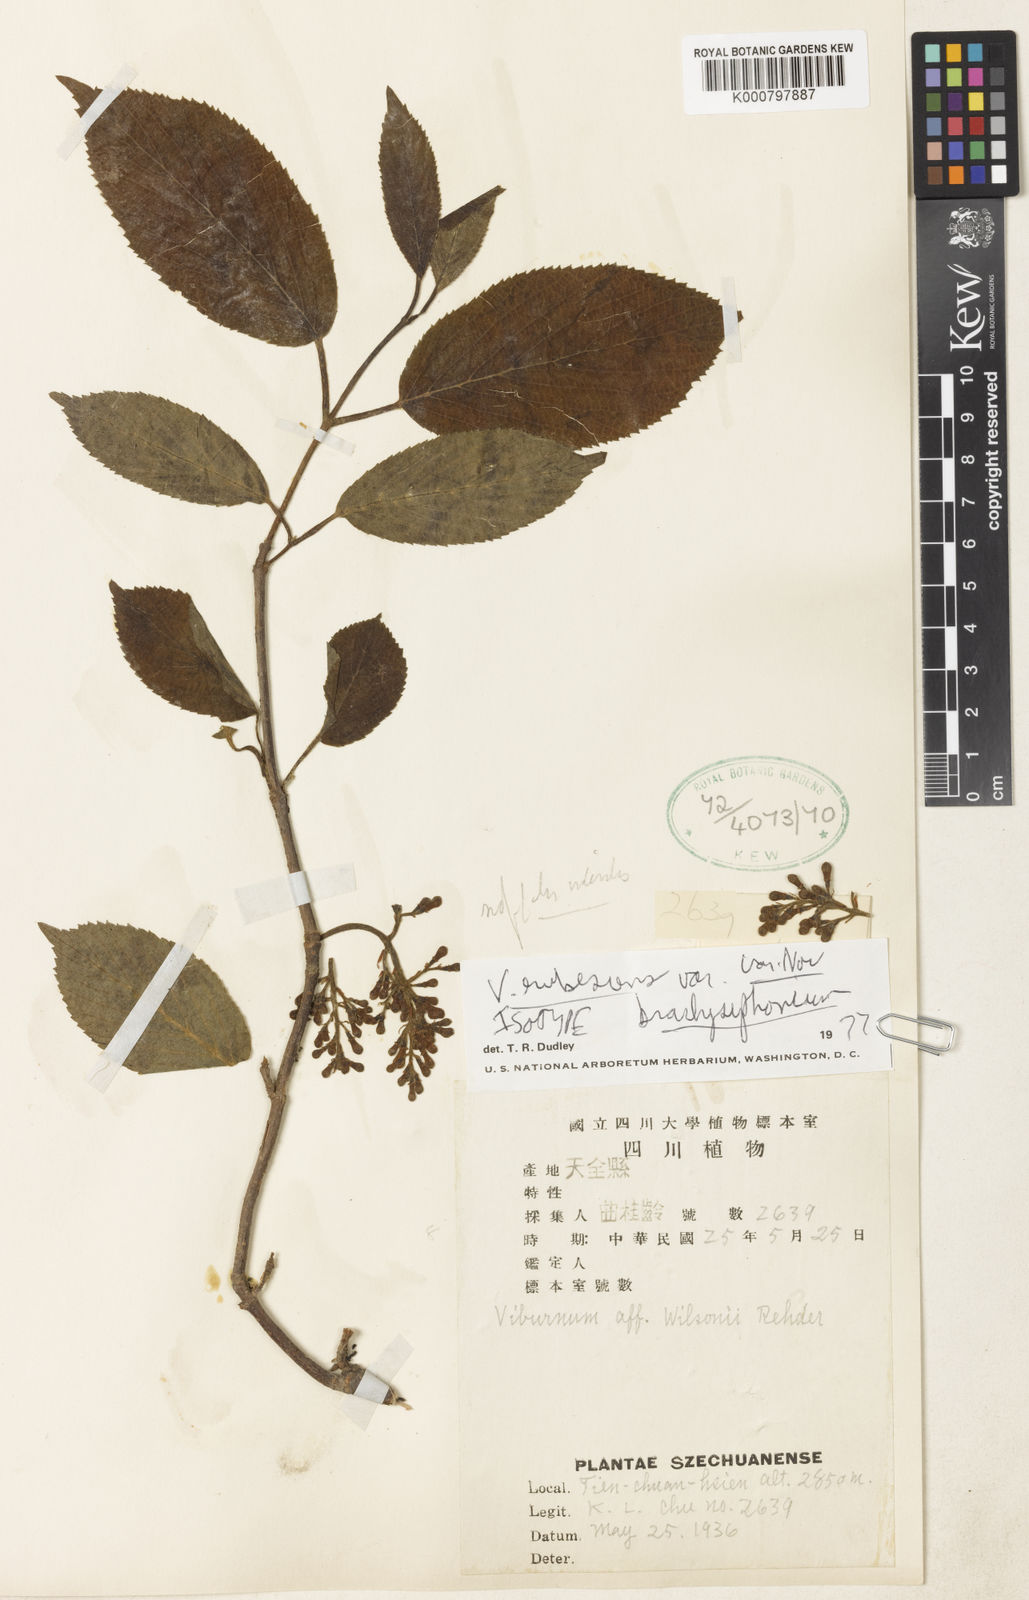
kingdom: Plantae
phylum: Tracheophyta
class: Magnoliopsida
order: Dipsacales
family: Viburnaceae
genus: Viburnum
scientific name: Viburnum
